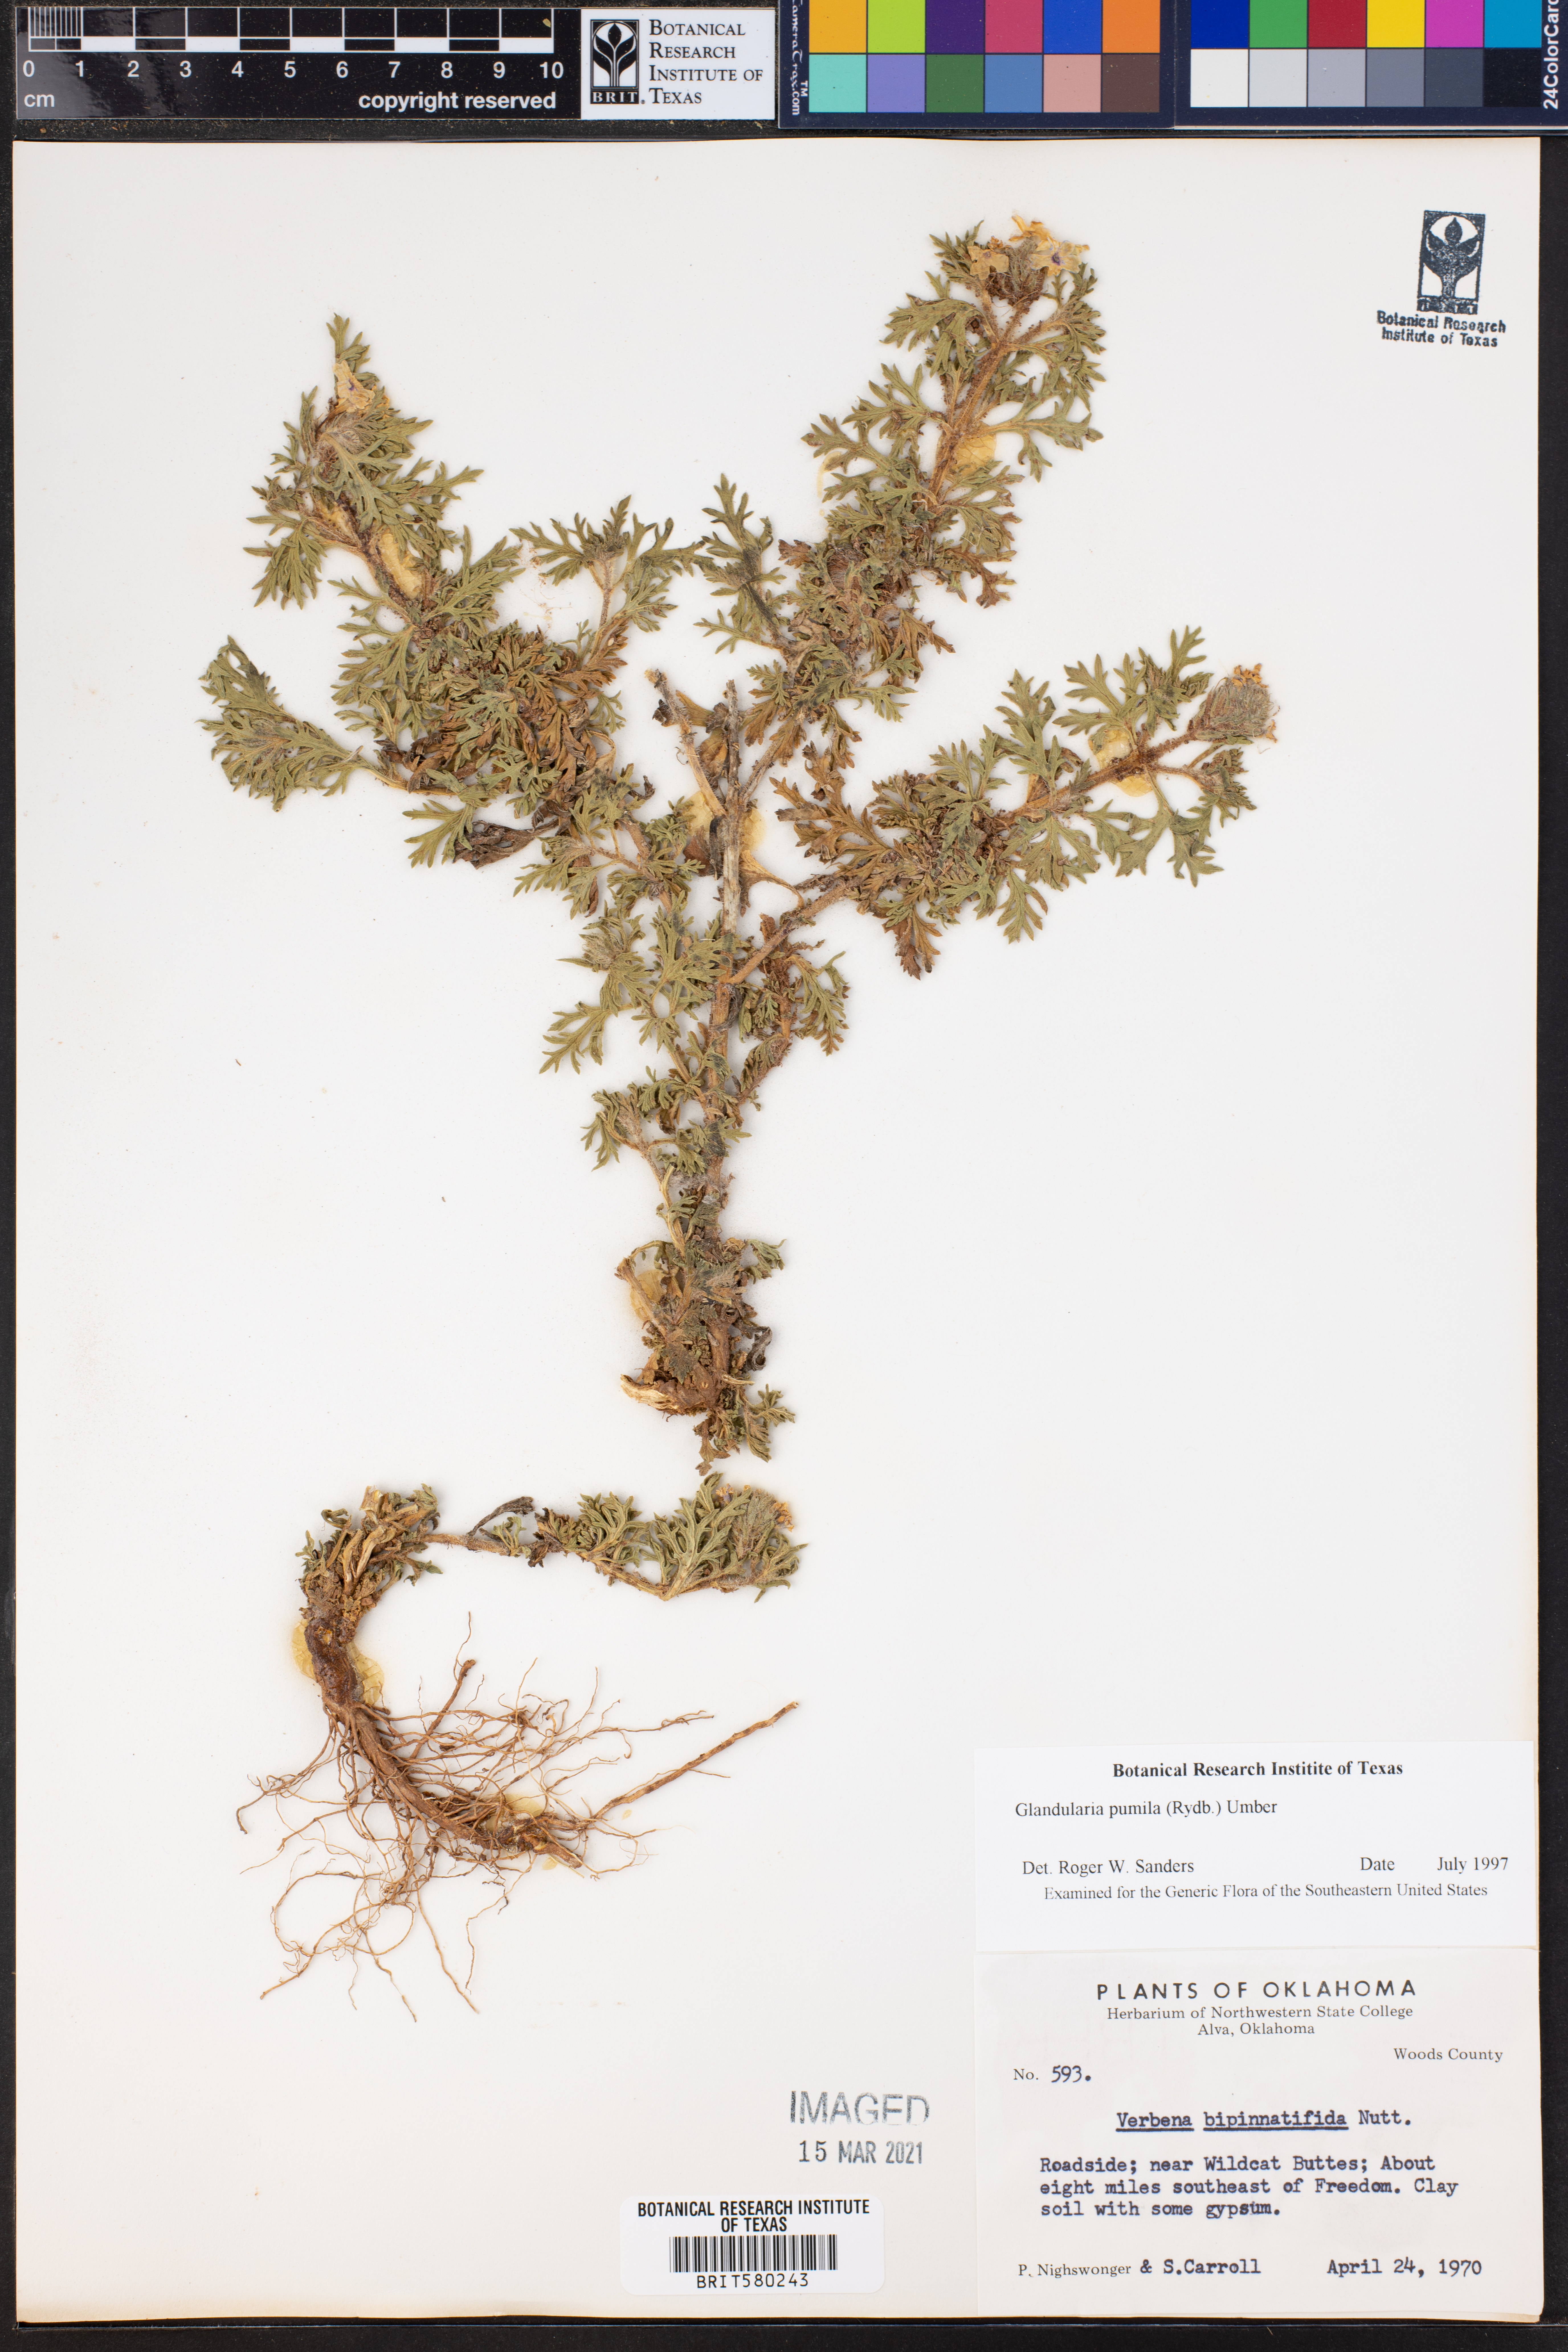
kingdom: Plantae
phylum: Tracheophyta
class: Magnoliopsida
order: Lamiales
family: Verbenaceae
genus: Verbena
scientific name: Verbena pumila
